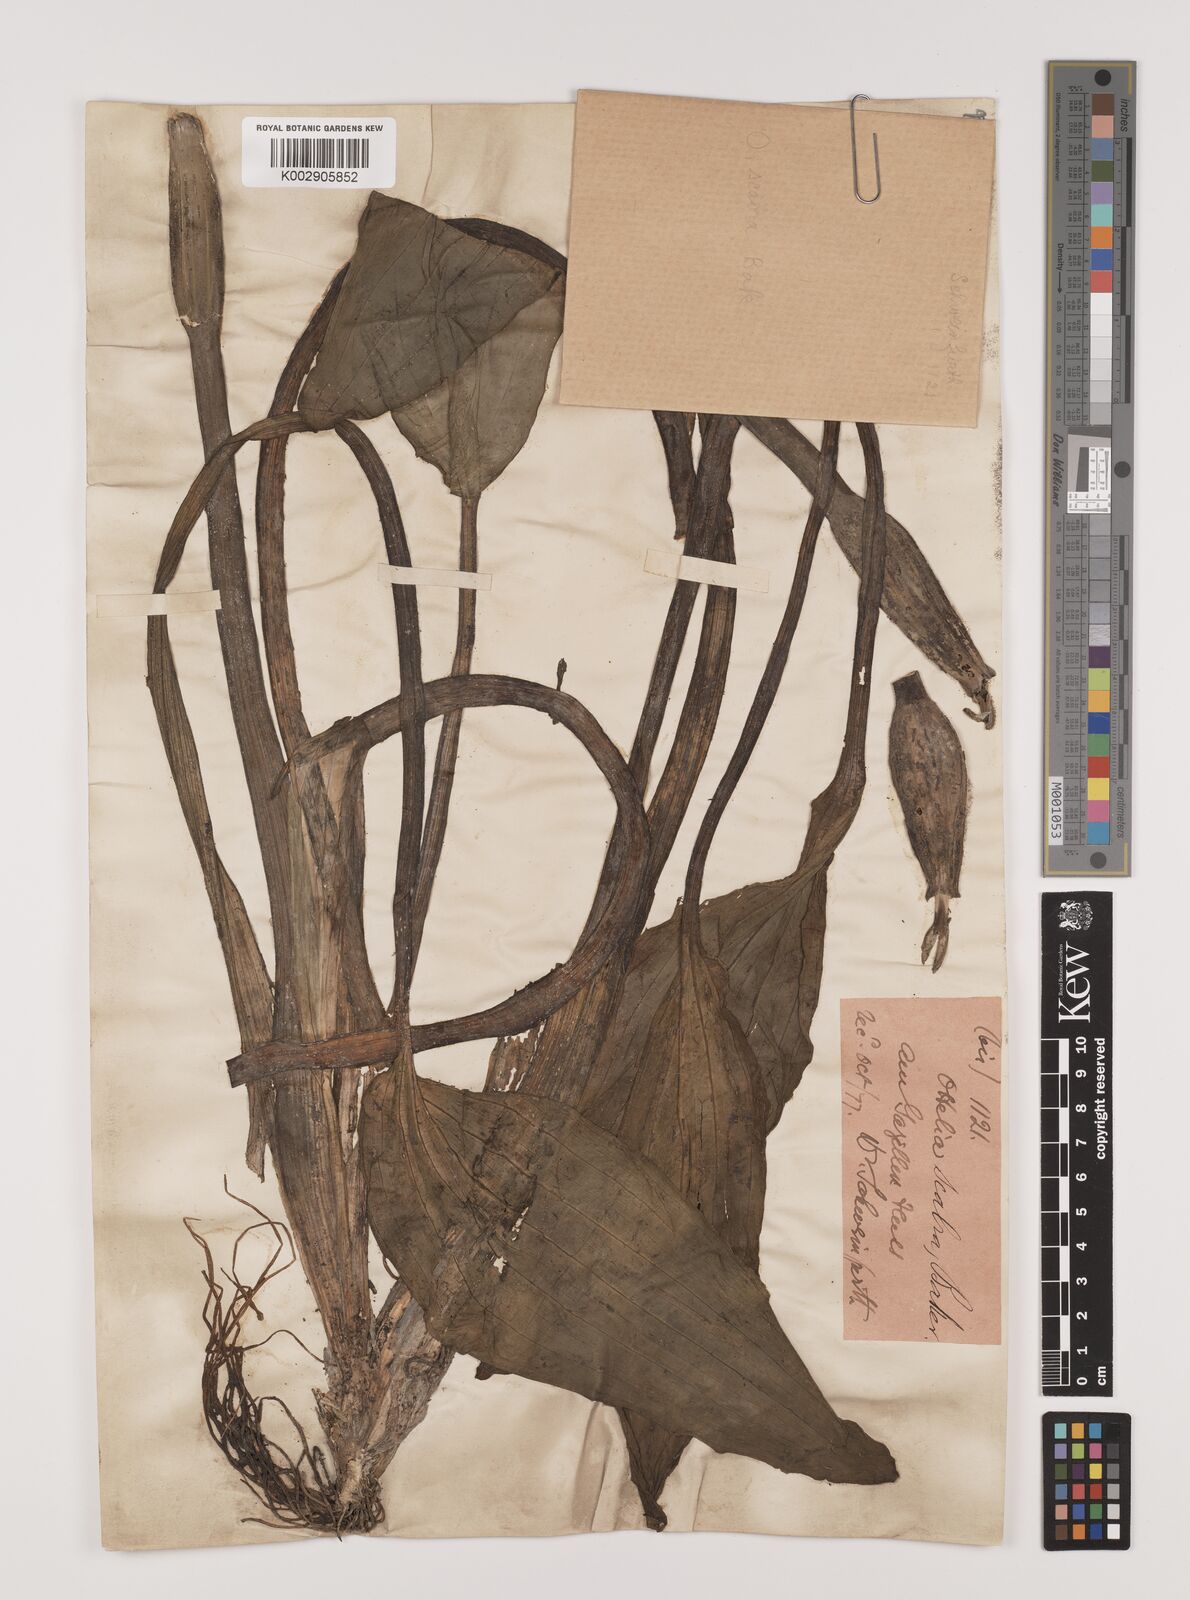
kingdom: Plantae
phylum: Tracheophyta
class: Liliopsida
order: Alismatales
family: Hydrocharitaceae
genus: Ottelia
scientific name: Ottelia scabra
